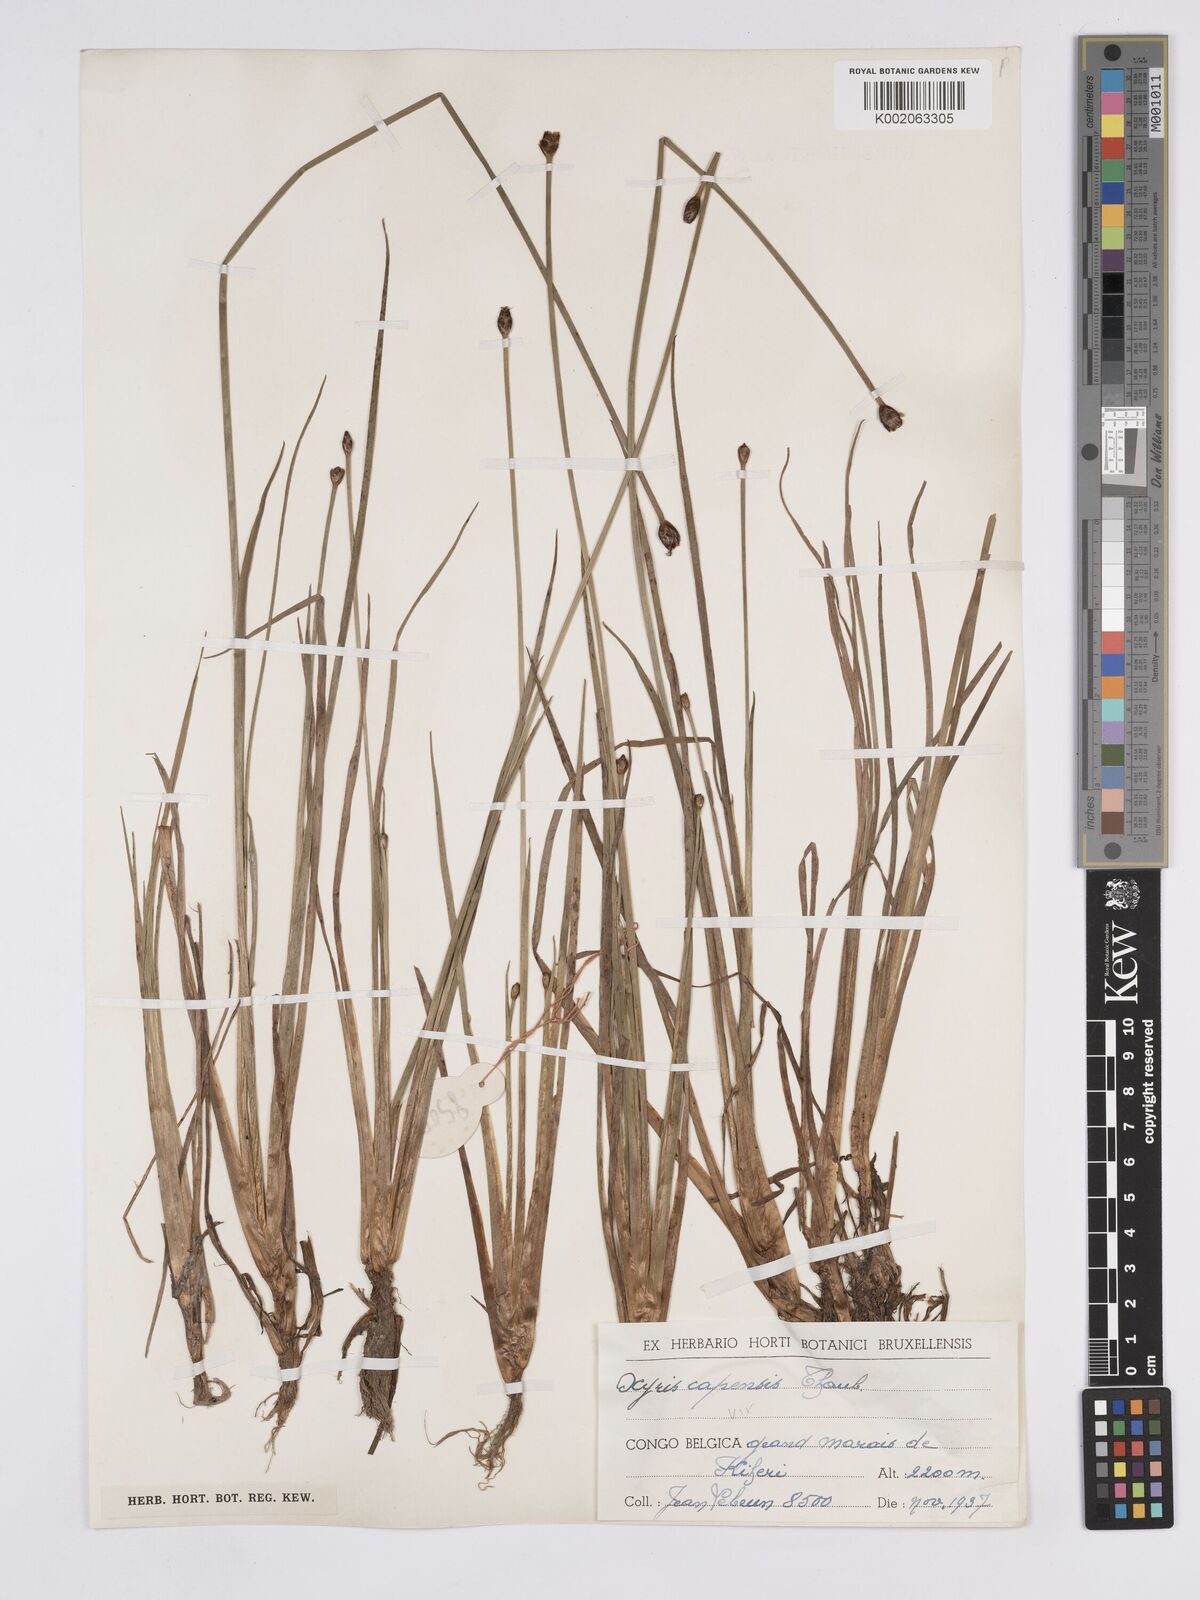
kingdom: Plantae
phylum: Tracheophyta
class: Liliopsida
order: Poales
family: Xyridaceae
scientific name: Xyridaceae
